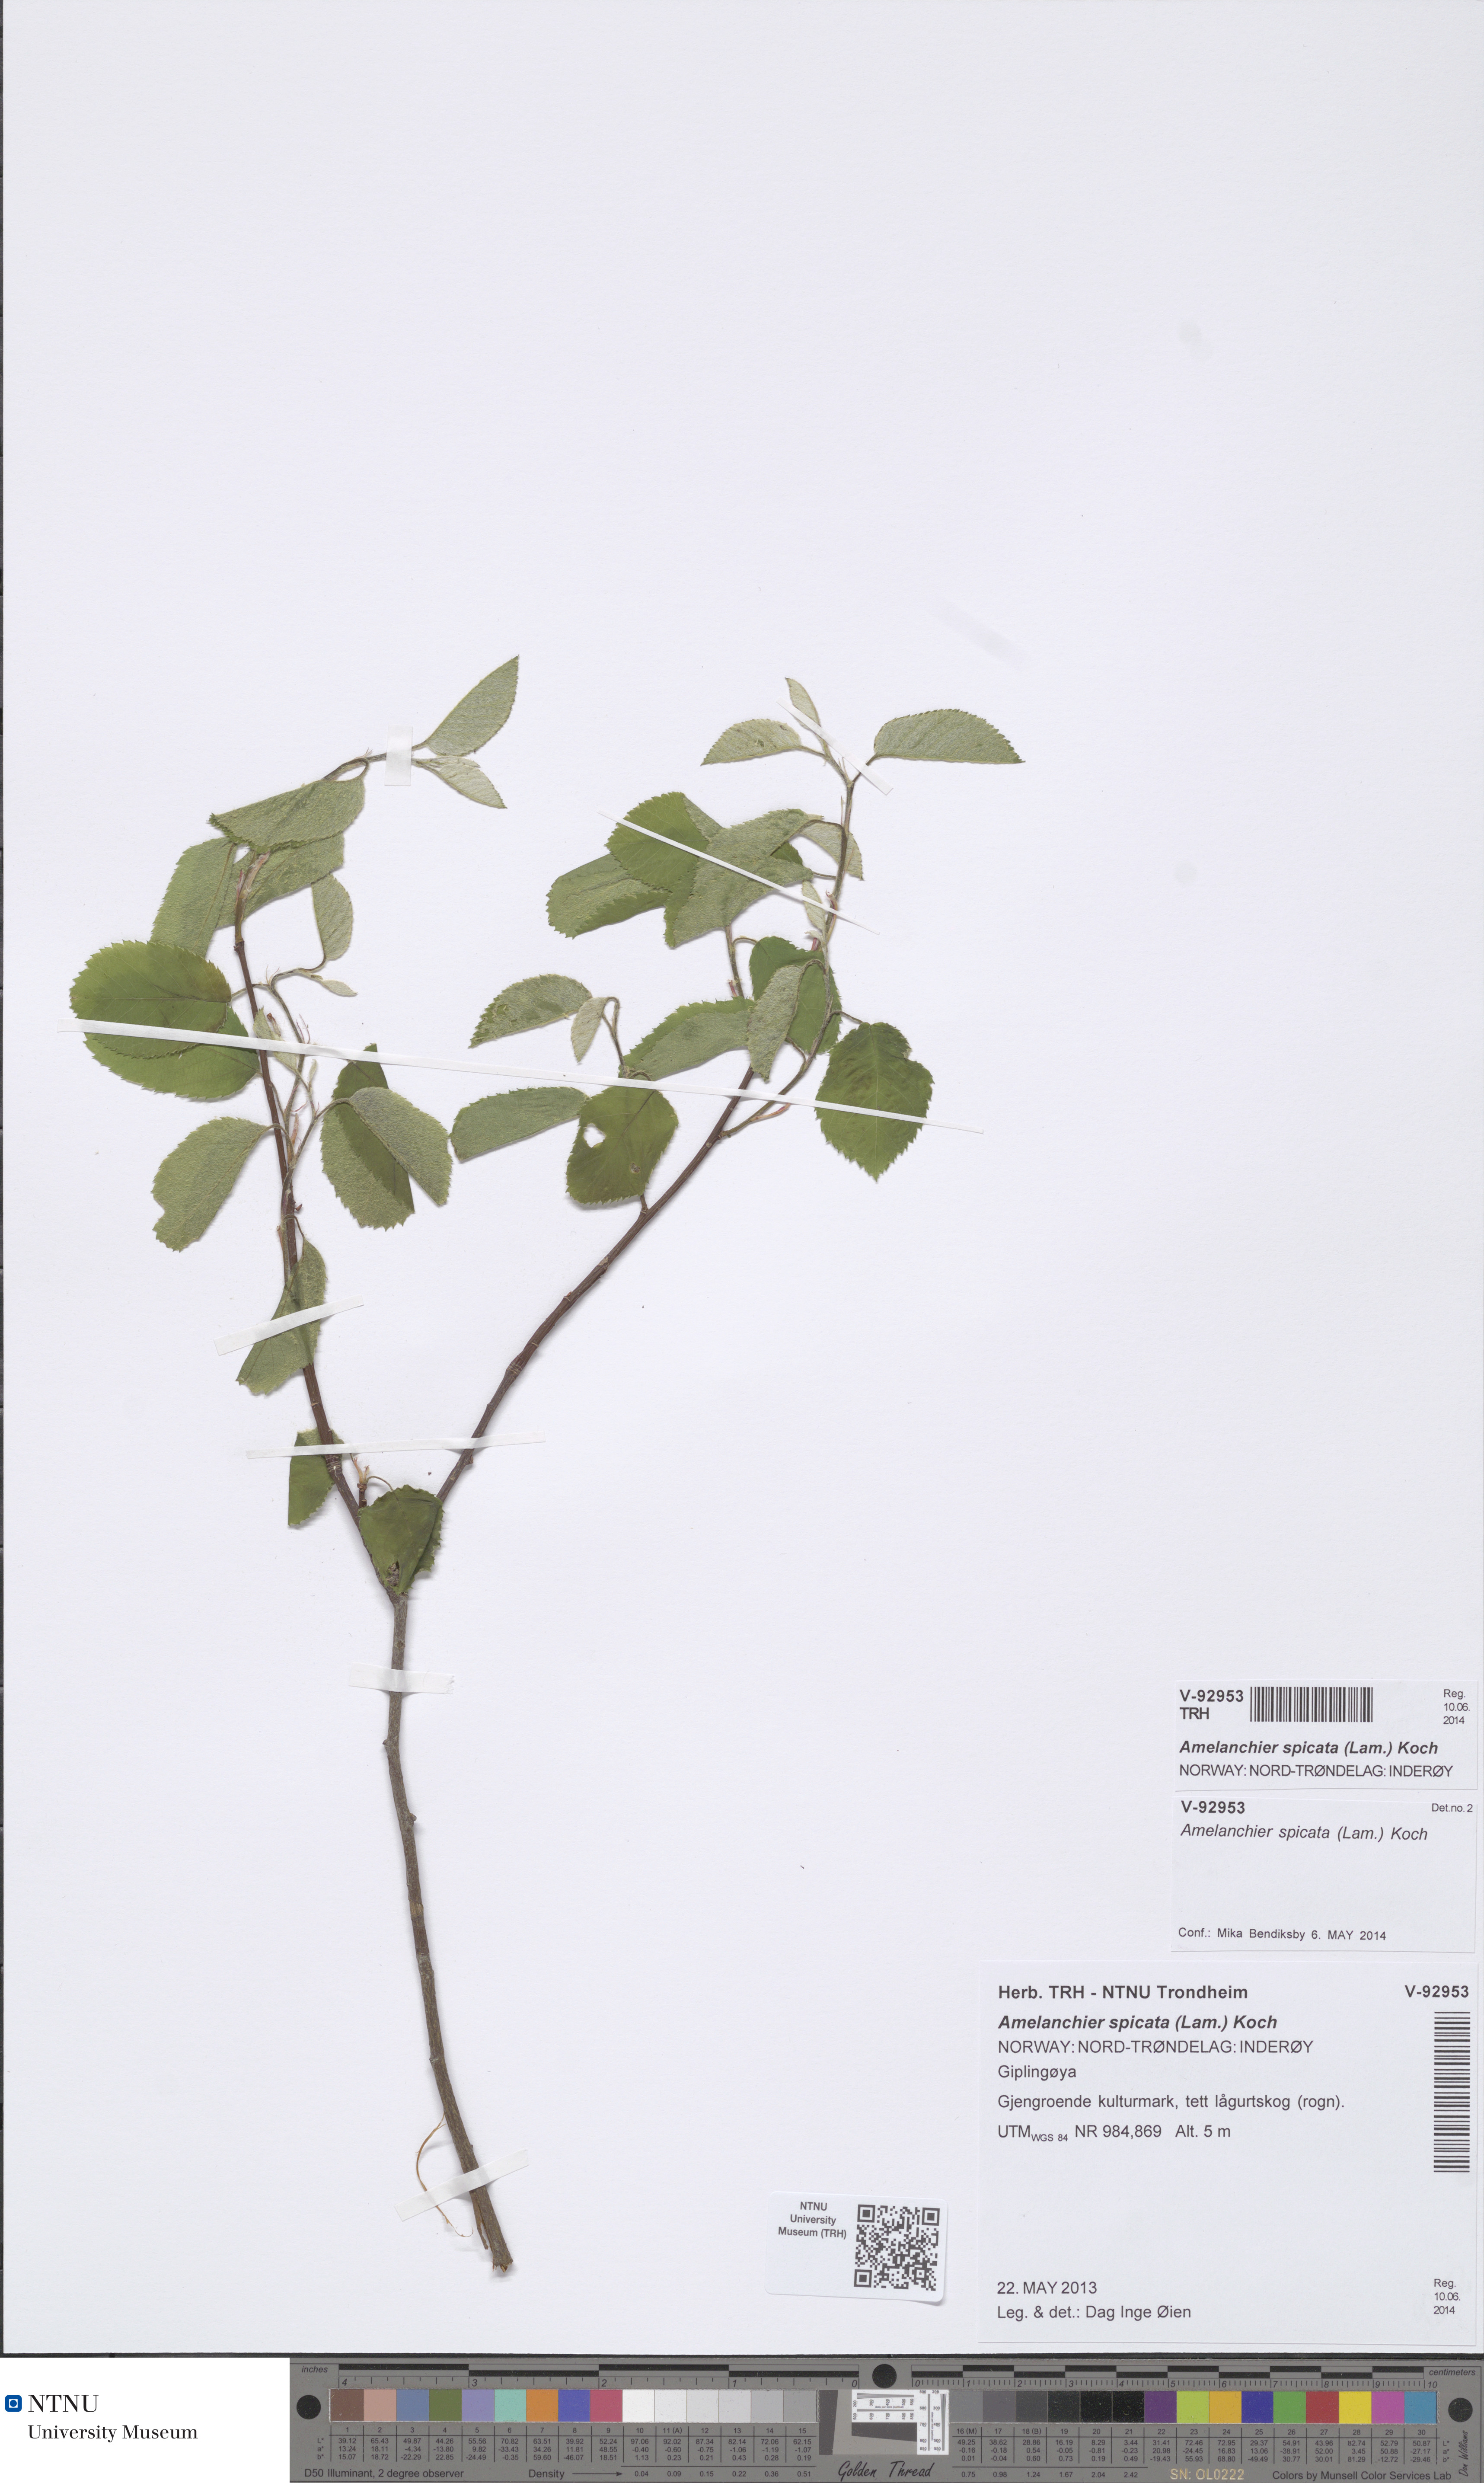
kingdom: Plantae
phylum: Tracheophyta
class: Magnoliopsida
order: Rosales
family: Rosaceae
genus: Amelanchier
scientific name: Amelanchier humilis
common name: Low juneberry
